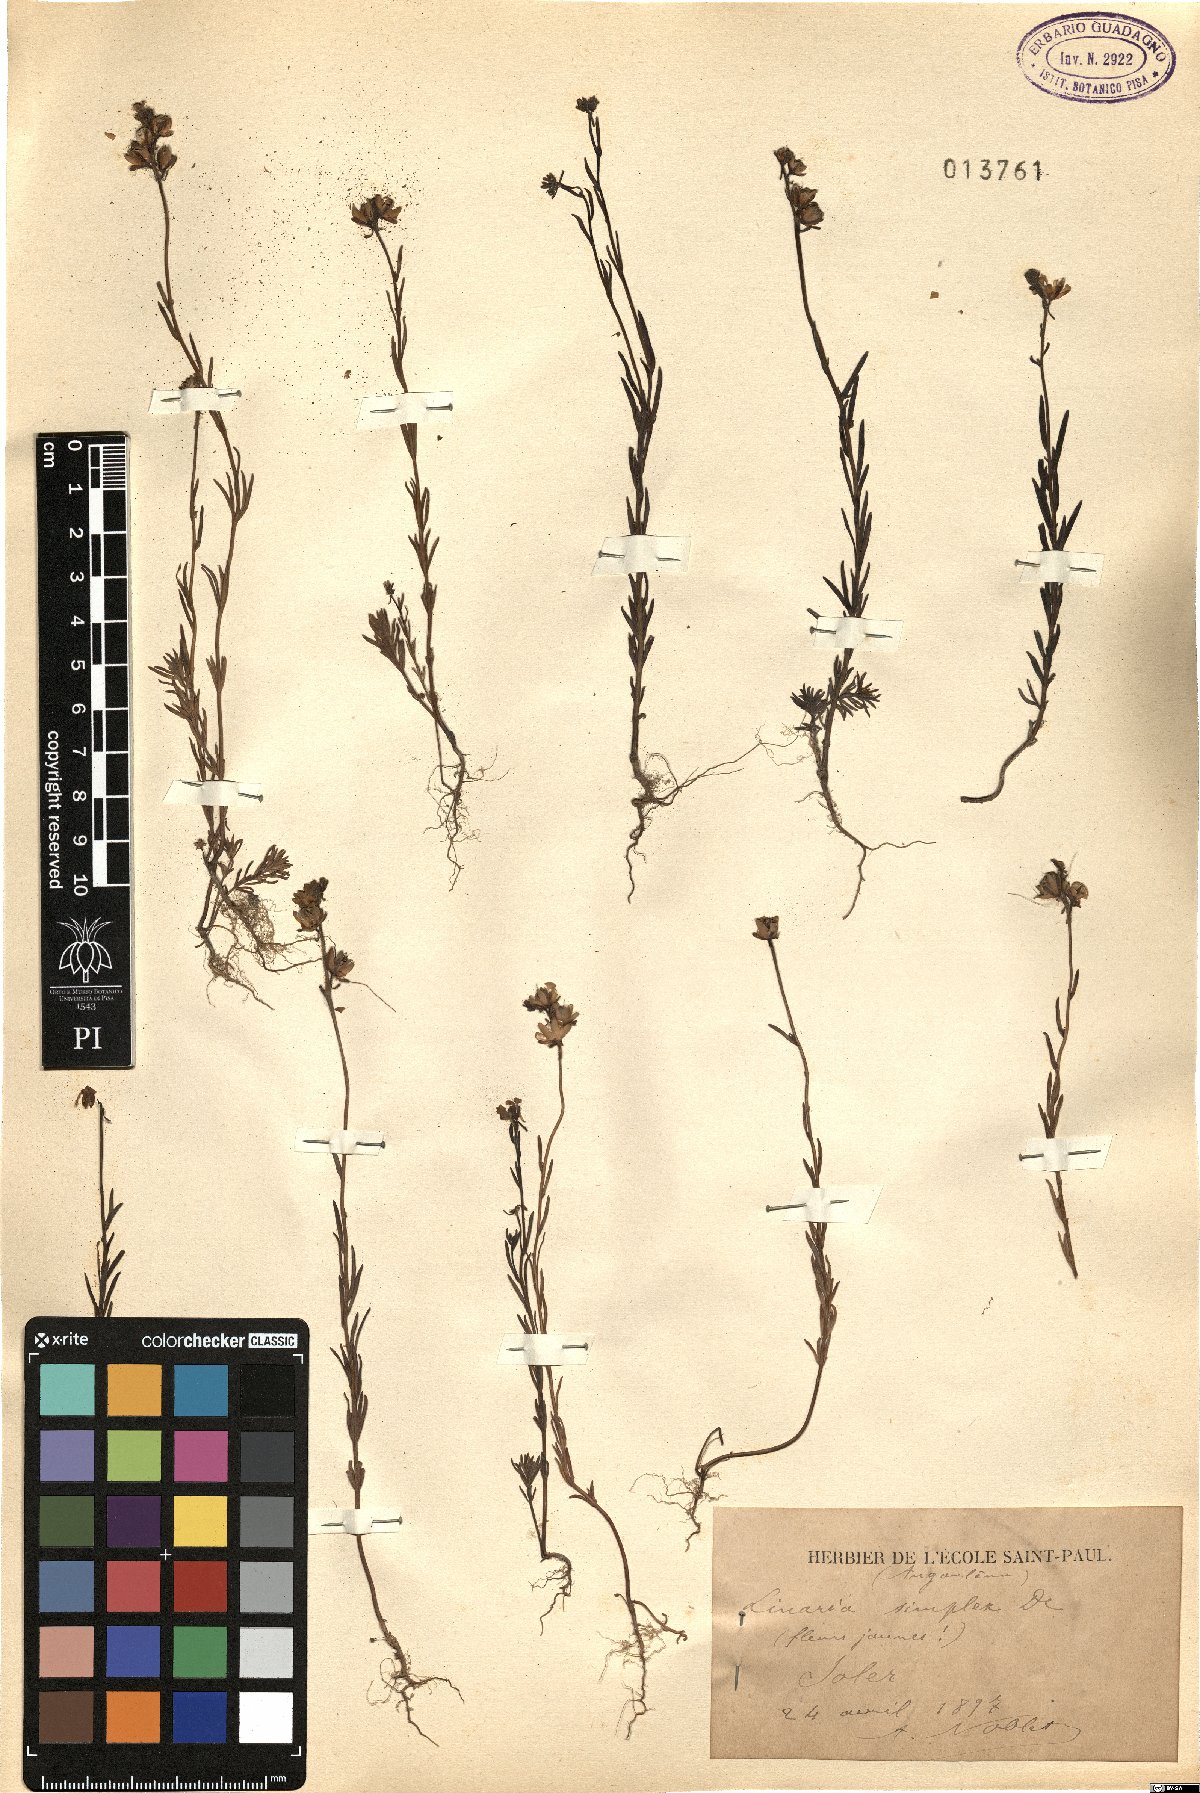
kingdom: Plantae
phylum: Tracheophyta
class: Magnoliopsida
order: Lamiales
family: Plantaginaceae
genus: Linaria
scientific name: Linaria simplex
